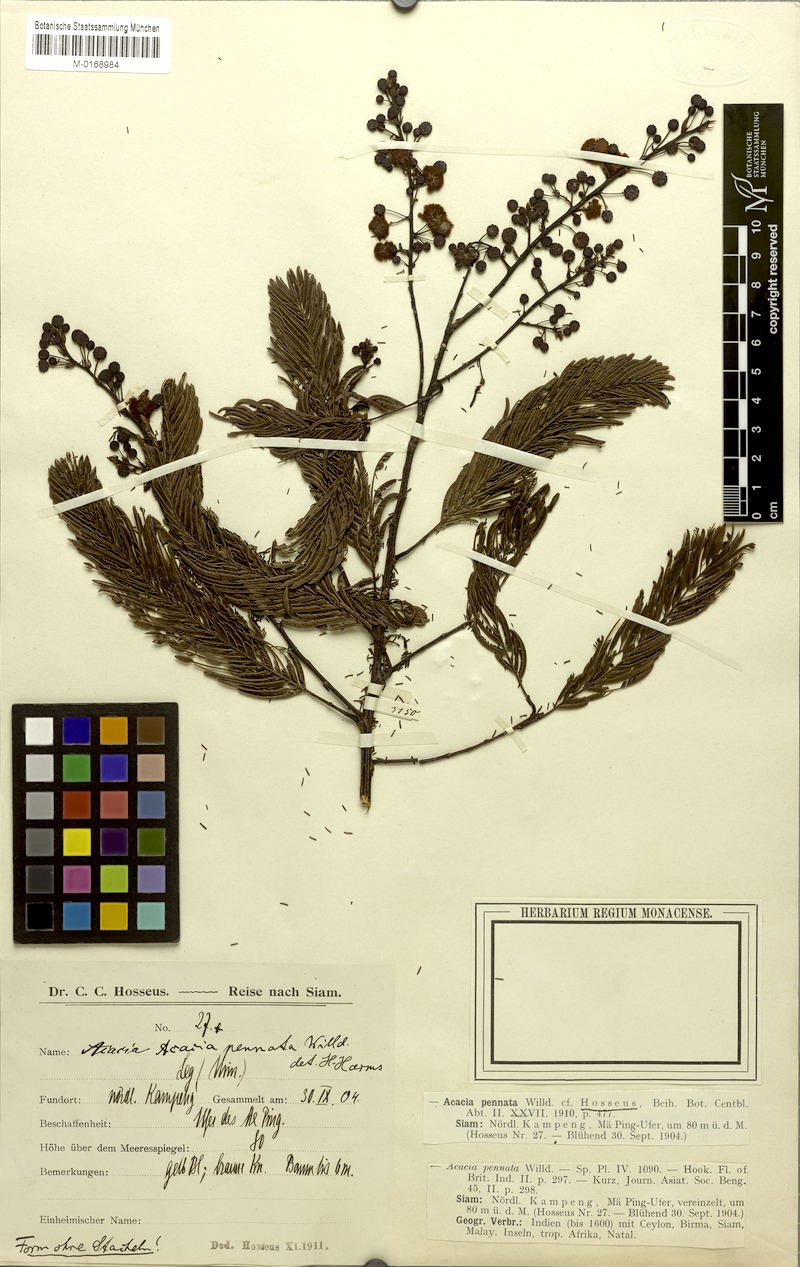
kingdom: Plantae
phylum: Tracheophyta
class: Magnoliopsida
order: Fabales
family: Fabaceae
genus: Senegalia
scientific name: Senegalia pennata
